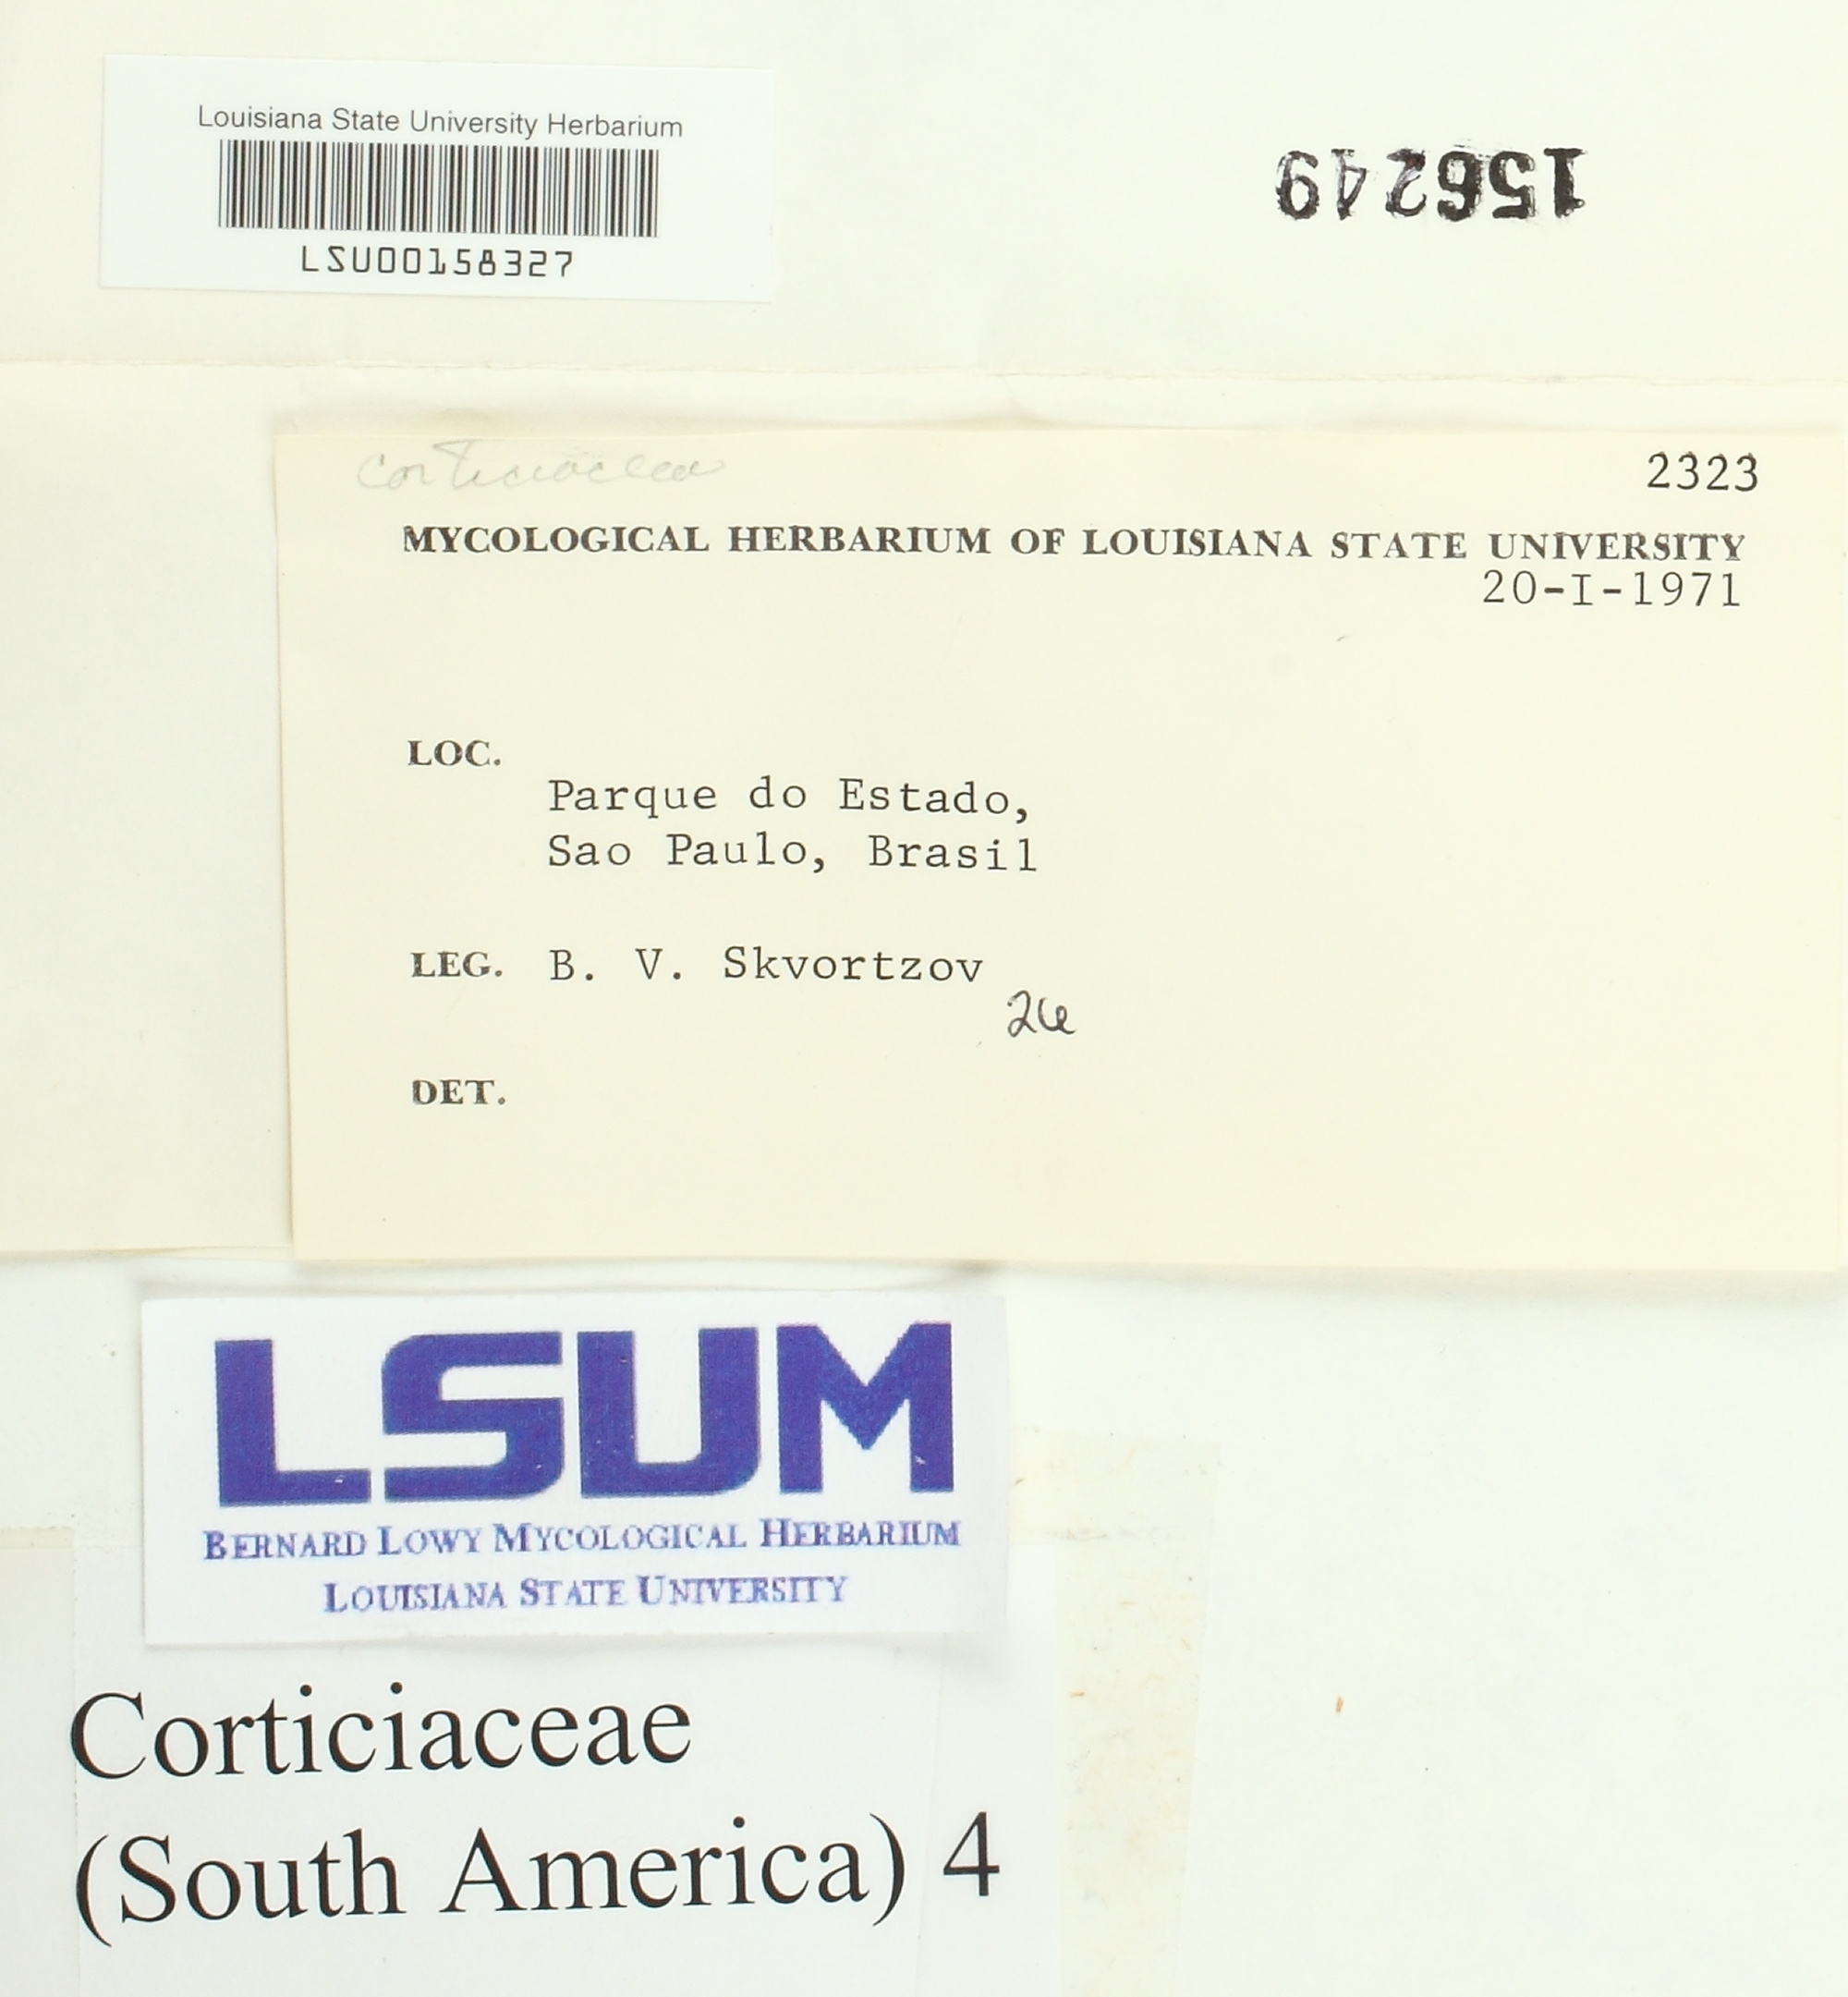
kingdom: Fungi
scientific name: Fungi
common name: Fungi
